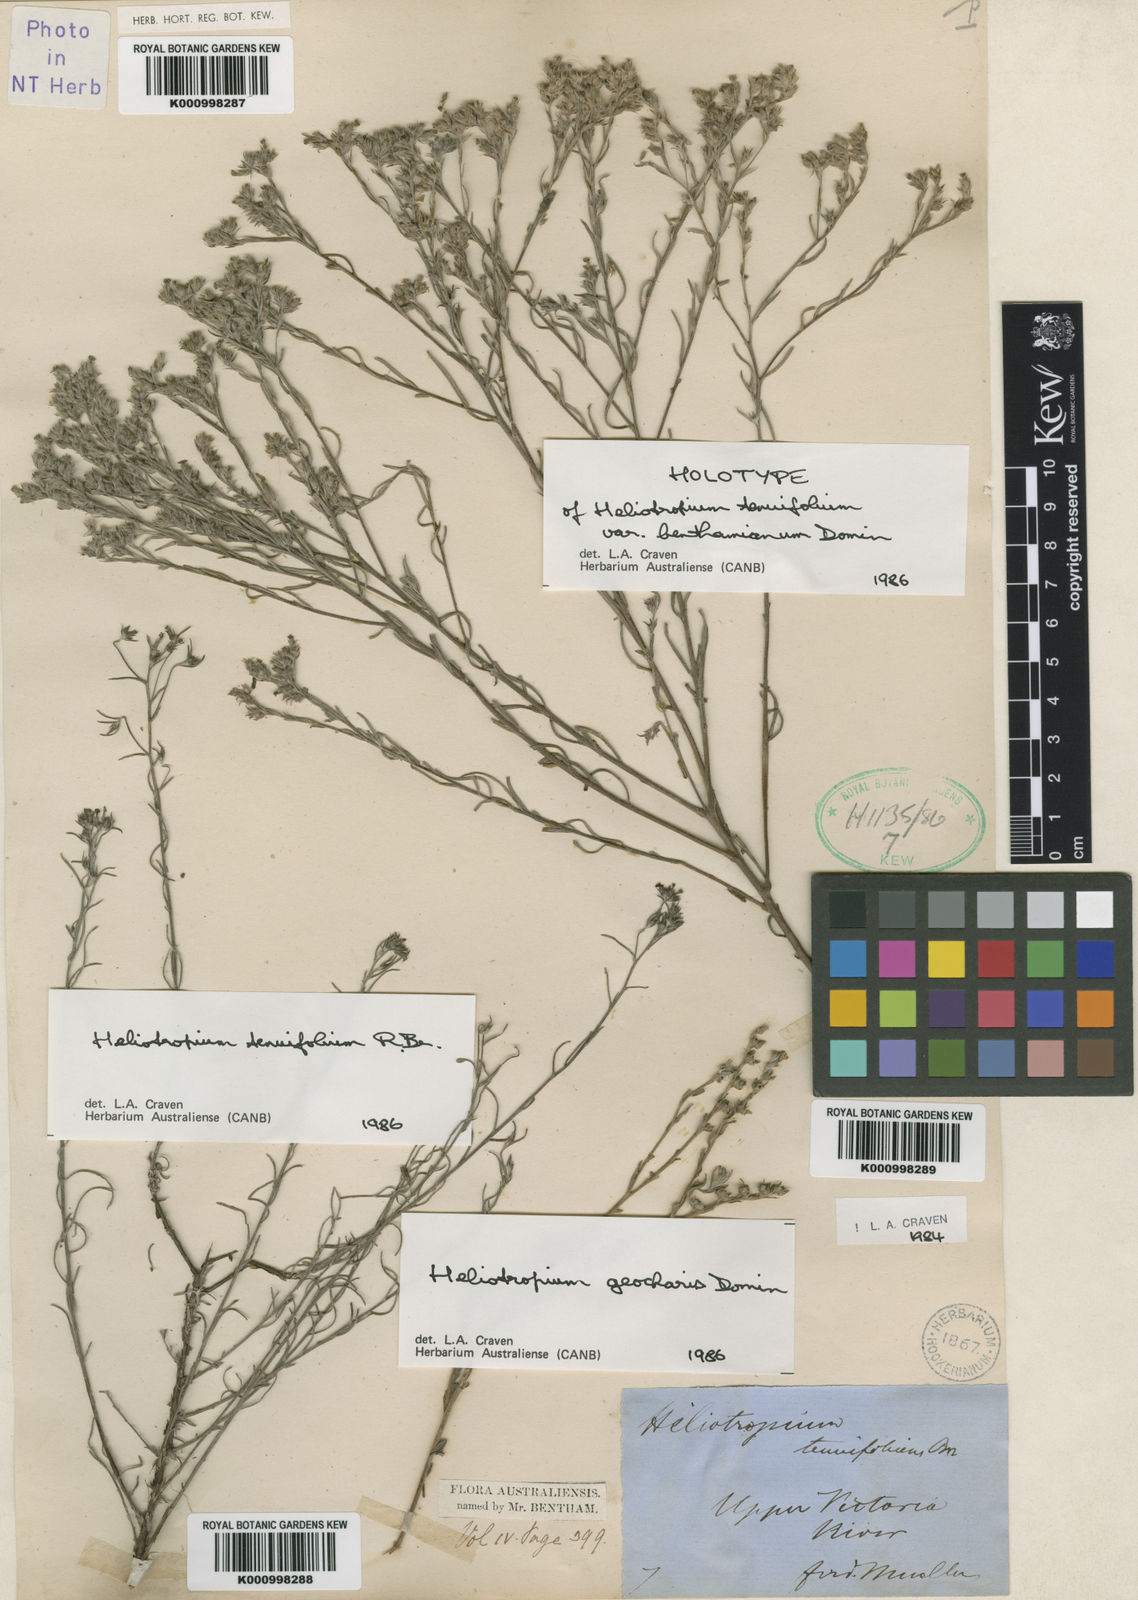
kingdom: Plantae
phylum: Tracheophyta
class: Magnoliopsida
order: Boraginales
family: Heliotropiaceae
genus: Euploca
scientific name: Euploca tenuifolia
